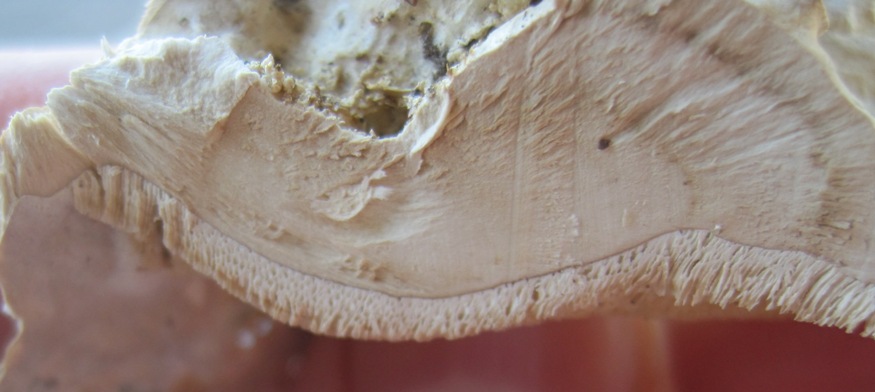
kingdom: Fungi
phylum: Basidiomycota
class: Agaricomycetes
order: Polyporales
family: Phanerochaetaceae
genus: Bjerkandera
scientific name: Bjerkandera fumosa
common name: grågul sodporesvamp
